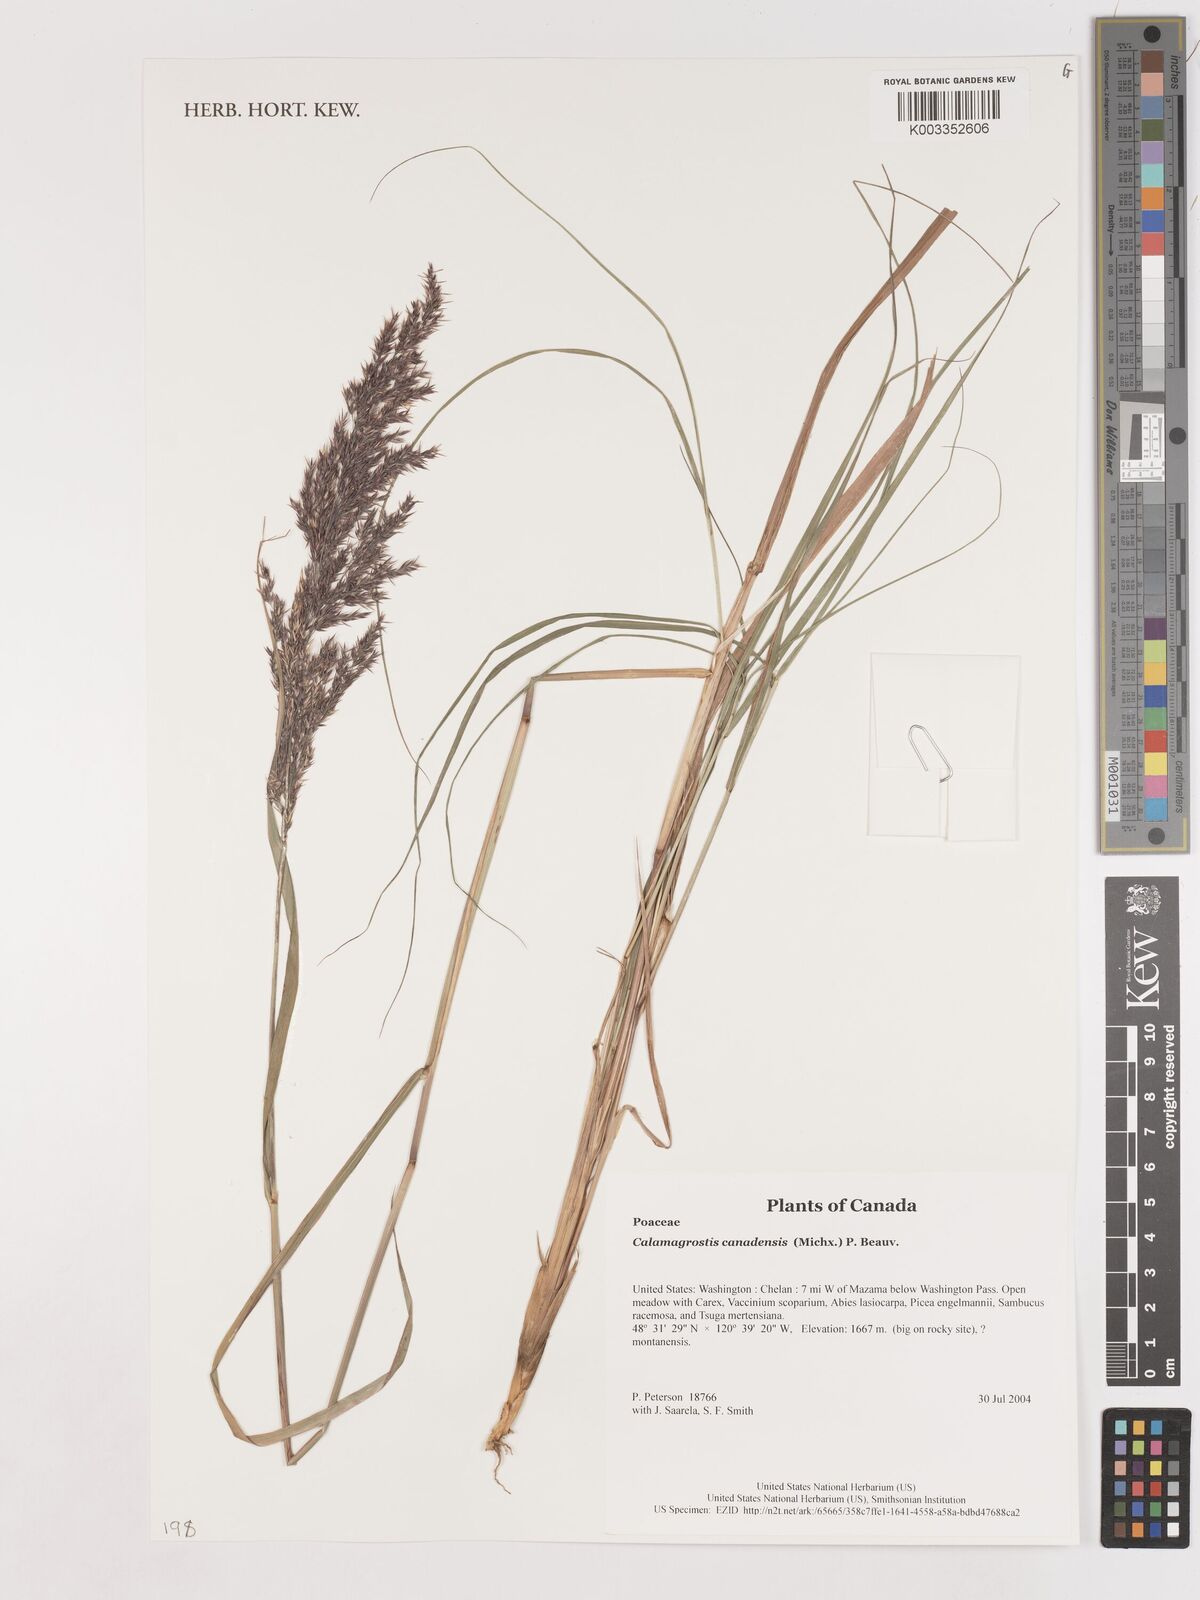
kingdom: Plantae
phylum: Tracheophyta
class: Liliopsida
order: Poales
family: Poaceae
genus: Calamagrostis
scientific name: Calamagrostis canadensis
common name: Canada bluejoint
